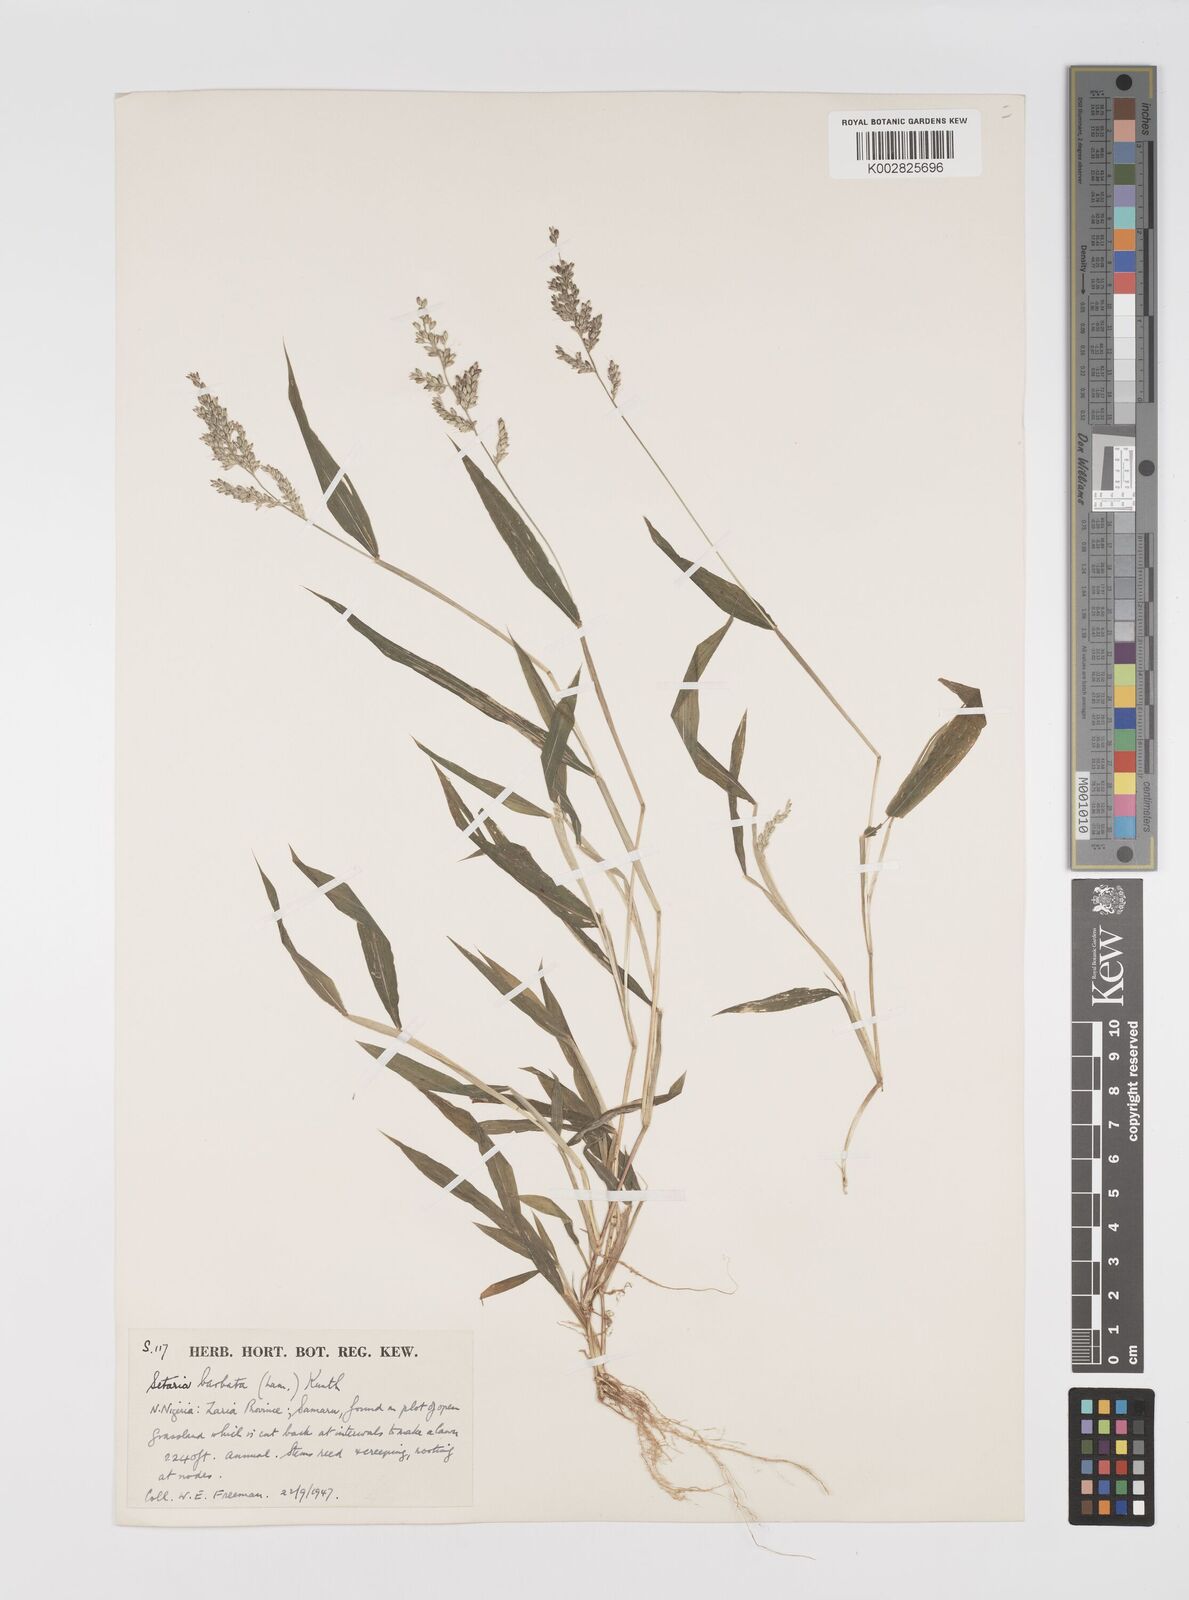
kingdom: Plantae
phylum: Tracheophyta
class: Liliopsida
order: Poales
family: Poaceae
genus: Setaria
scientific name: Setaria barbata
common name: East indian bristlegrass
